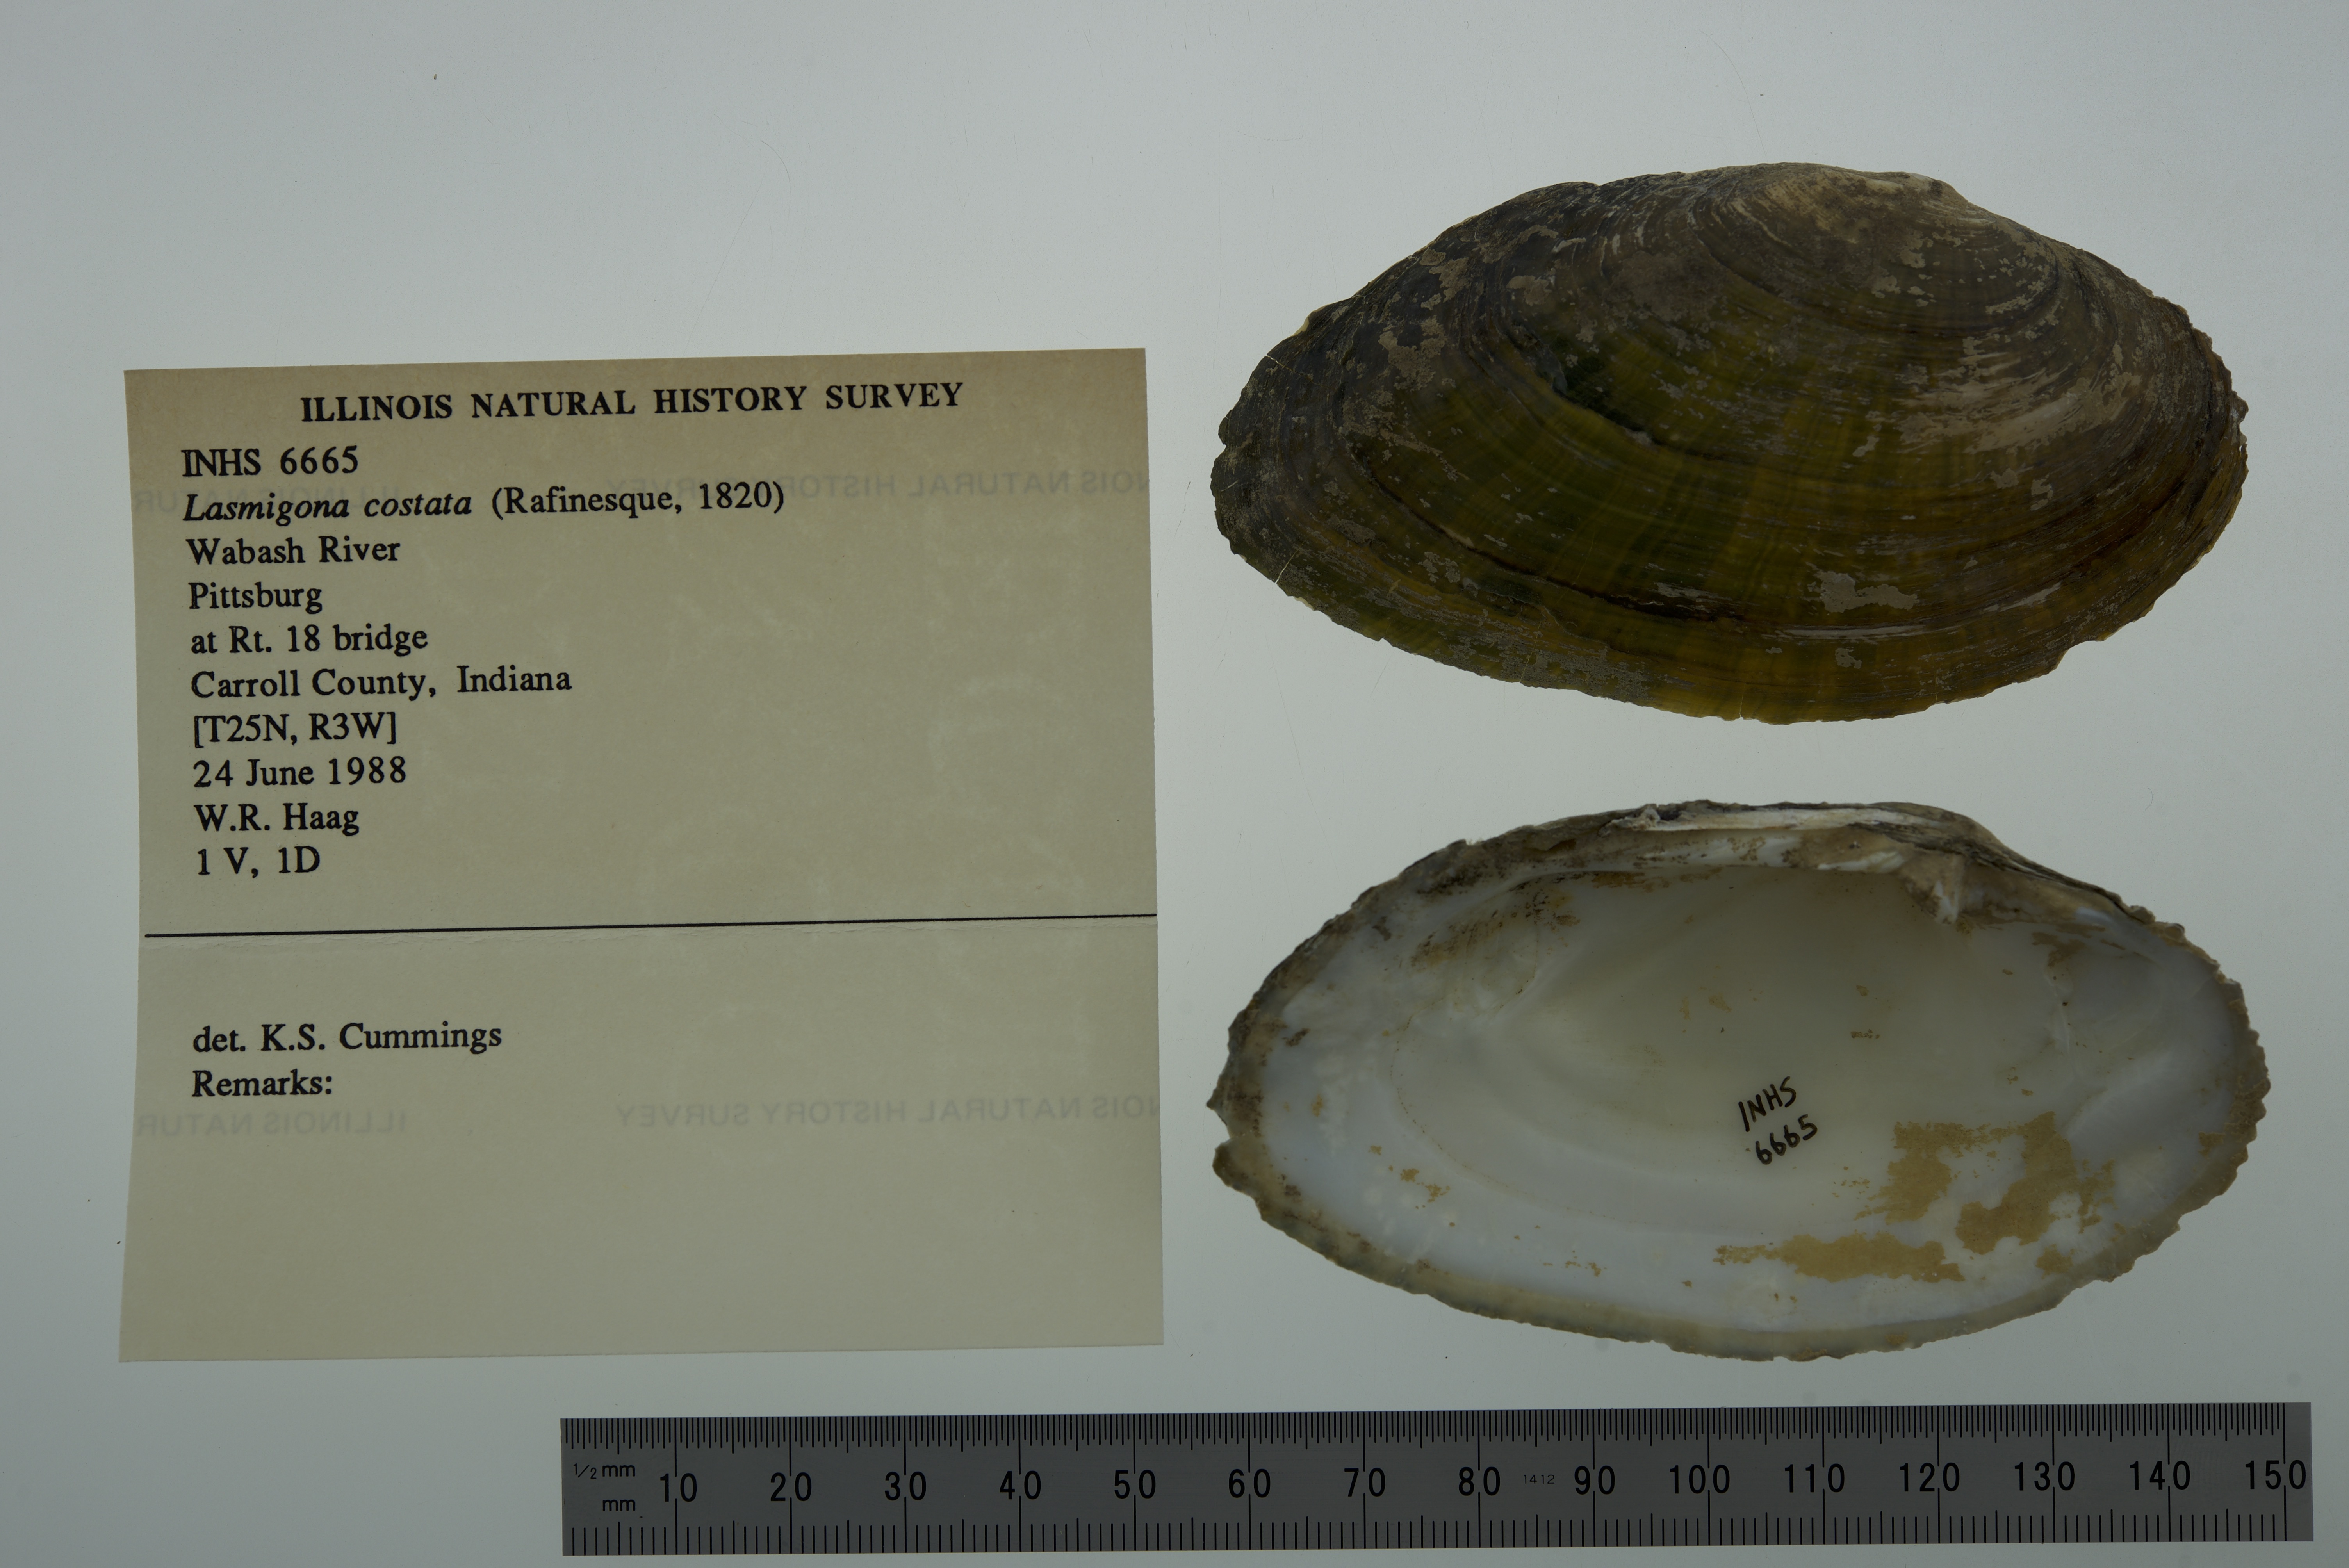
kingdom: Animalia
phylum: Mollusca
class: Bivalvia
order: Unionida
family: Unionidae
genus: Lasmigona
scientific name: Lasmigona costata
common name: Flutedshell
